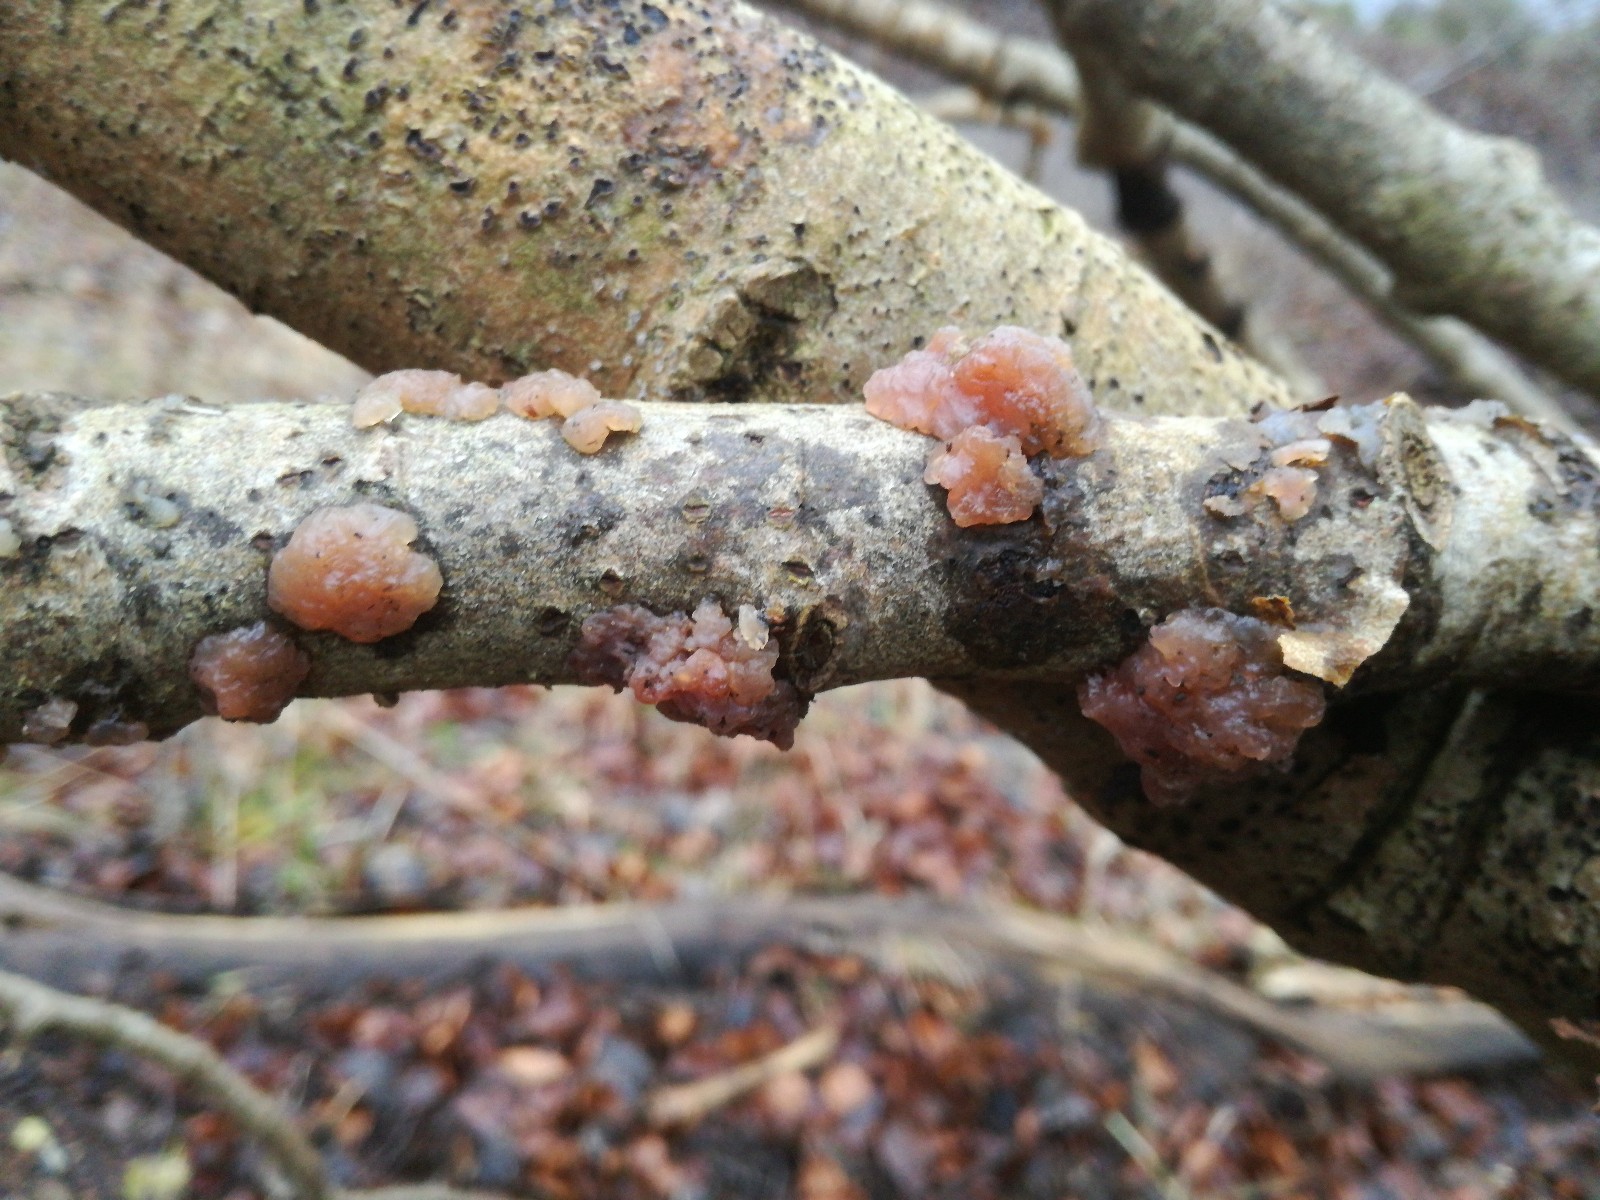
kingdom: Fungi
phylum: Basidiomycota
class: Agaricomycetes
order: Auriculariales
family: Hyaloriaceae
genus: Myxarium
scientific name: Myxarium nucleatum
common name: klar bævretop
